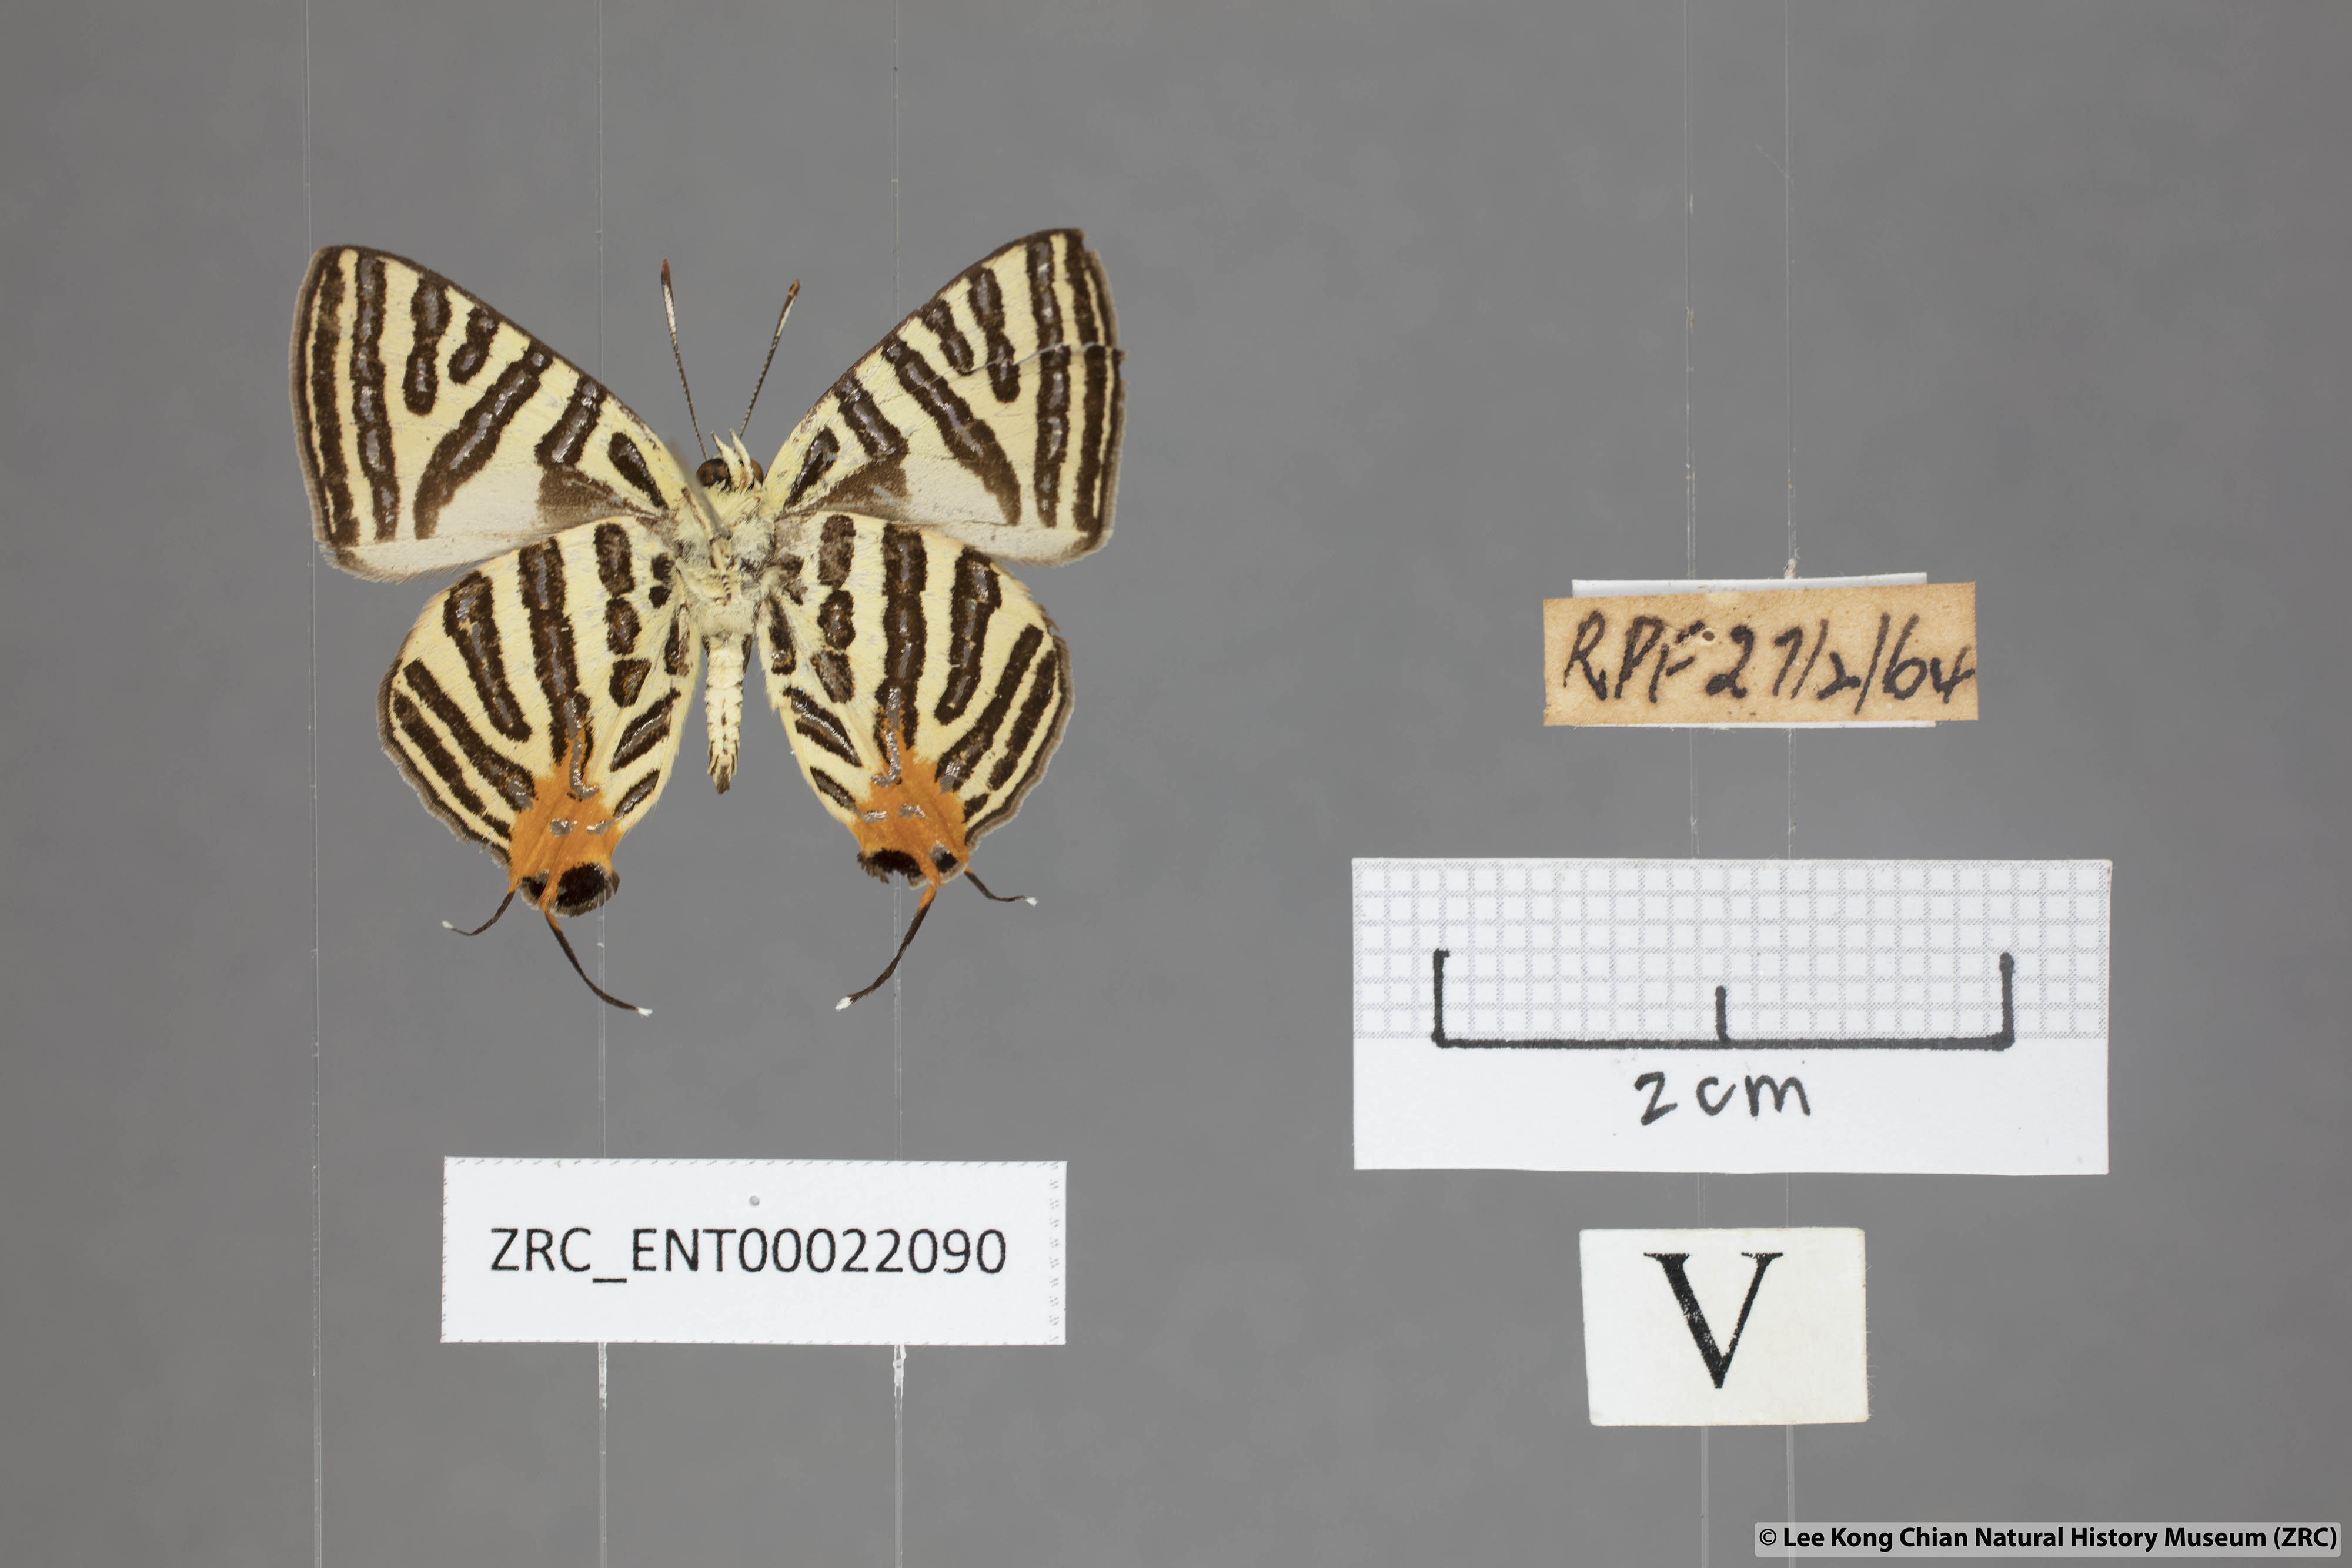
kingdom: Animalia
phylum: Arthropoda
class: Insecta
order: Lepidoptera
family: Lycaenidae
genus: Spindasis
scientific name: Spindasis syama
